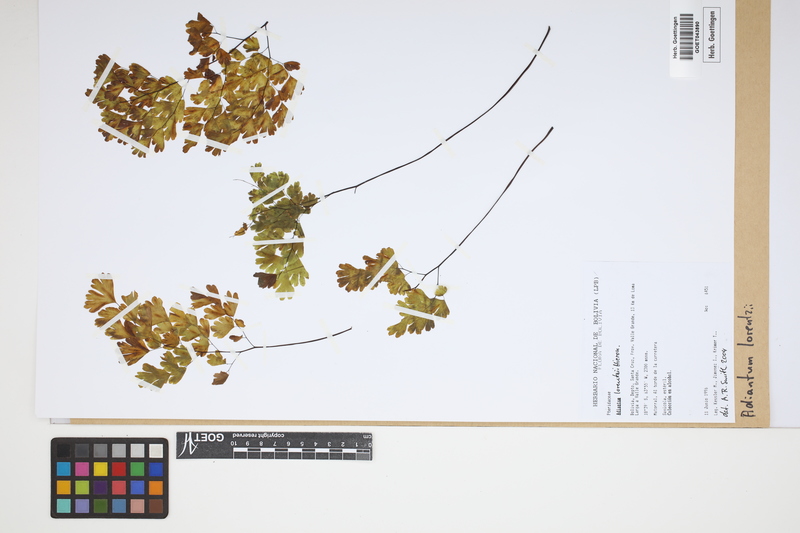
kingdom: Plantae
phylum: Tracheophyta
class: Polypodiopsida
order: Polypodiales
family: Pteridaceae
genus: Adiantum
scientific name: Adiantum lorentzii
